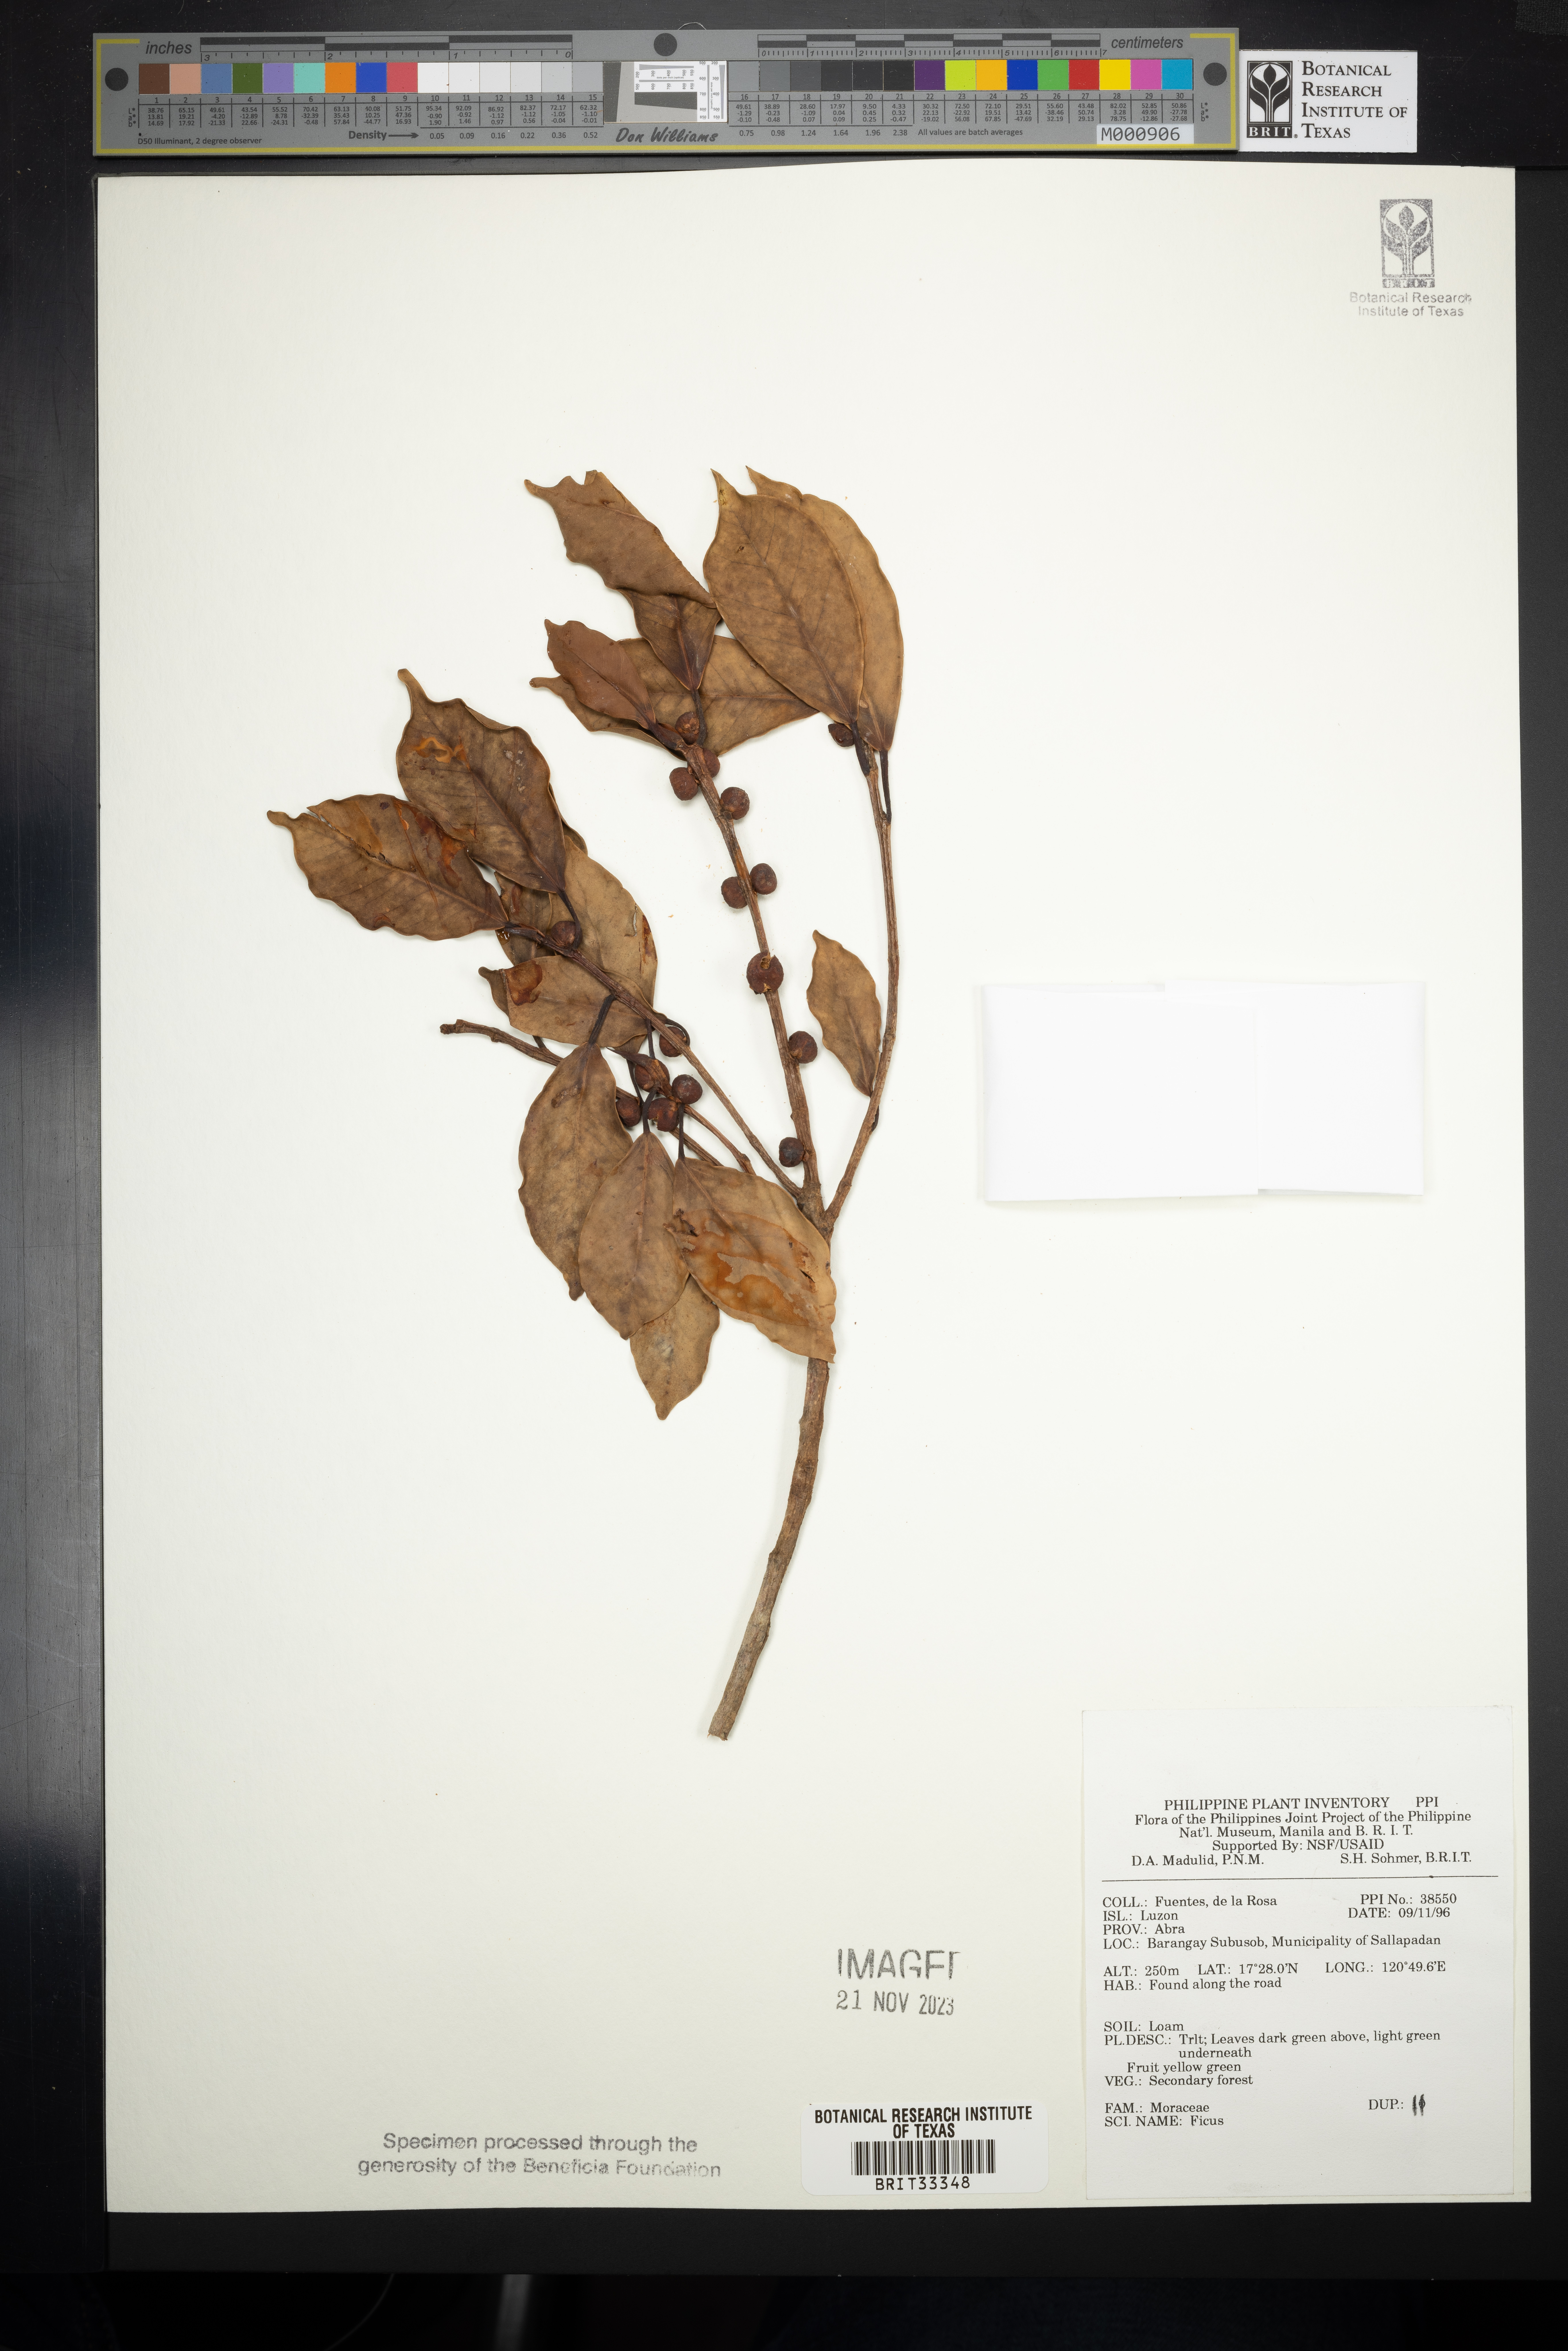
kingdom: Plantae
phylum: Tracheophyta
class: Magnoliopsida
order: Rosales
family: Moraceae
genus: Ficus
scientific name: Ficus
